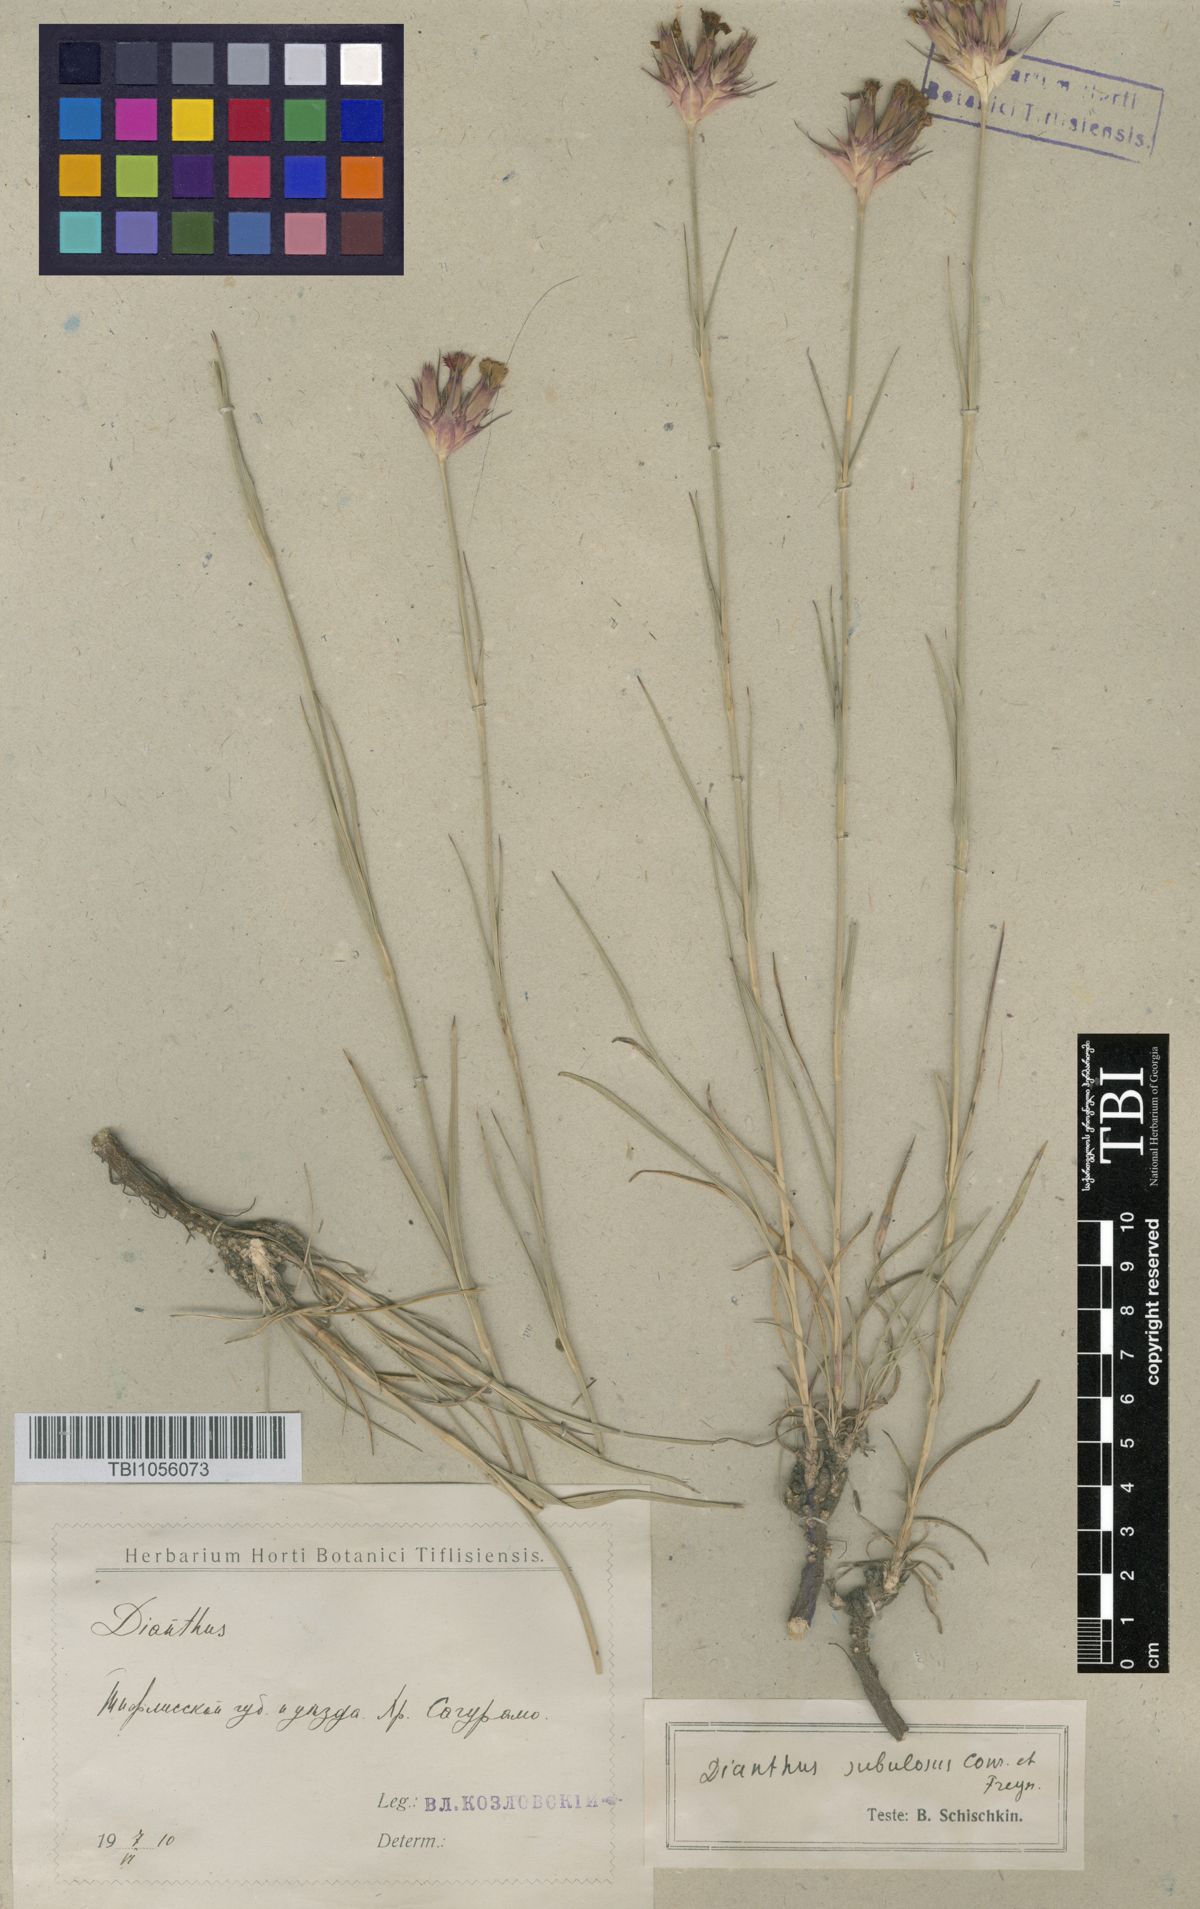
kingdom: Plantae
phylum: Tracheophyta
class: Magnoliopsida
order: Caryophyllales
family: Caryophyllaceae
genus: Dianthus
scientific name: Dianthus subulosus
